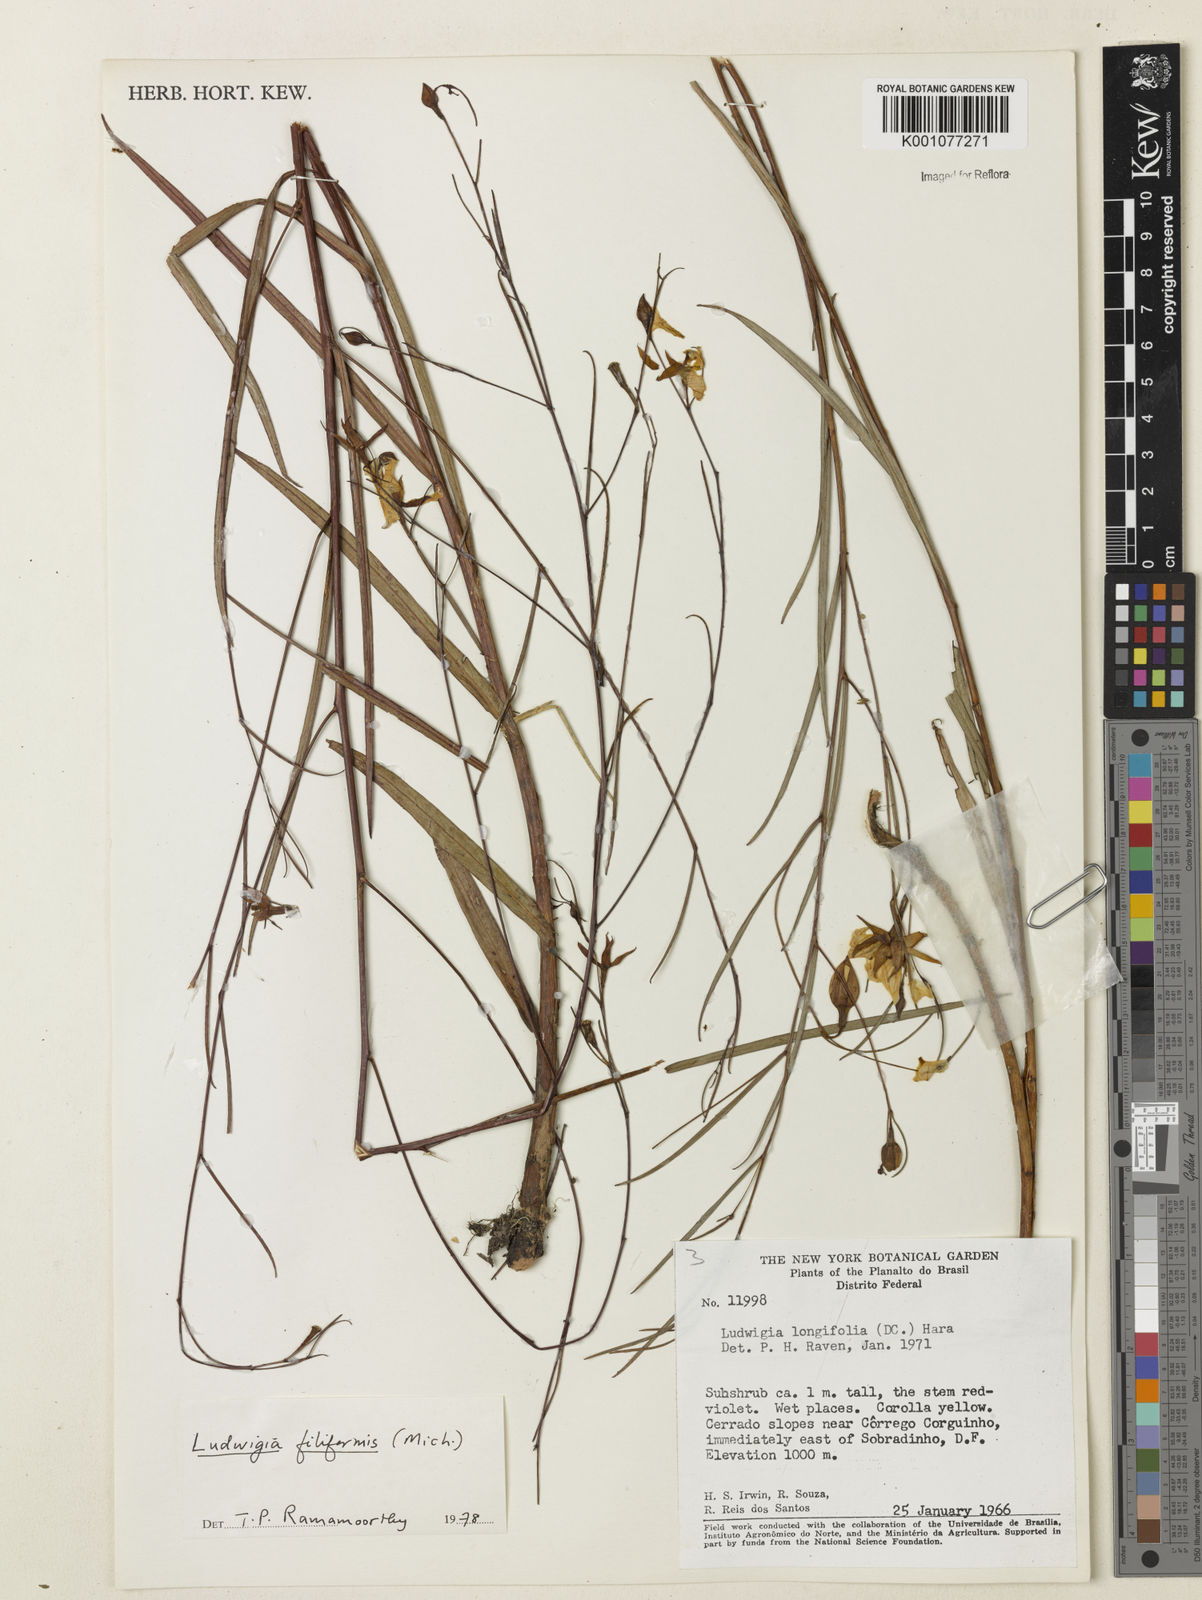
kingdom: Plantae
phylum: Tracheophyta
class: Magnoliopsida
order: Myrtales
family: Onagraceae
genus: Ludwigia
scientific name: Ludwigia filiformis
